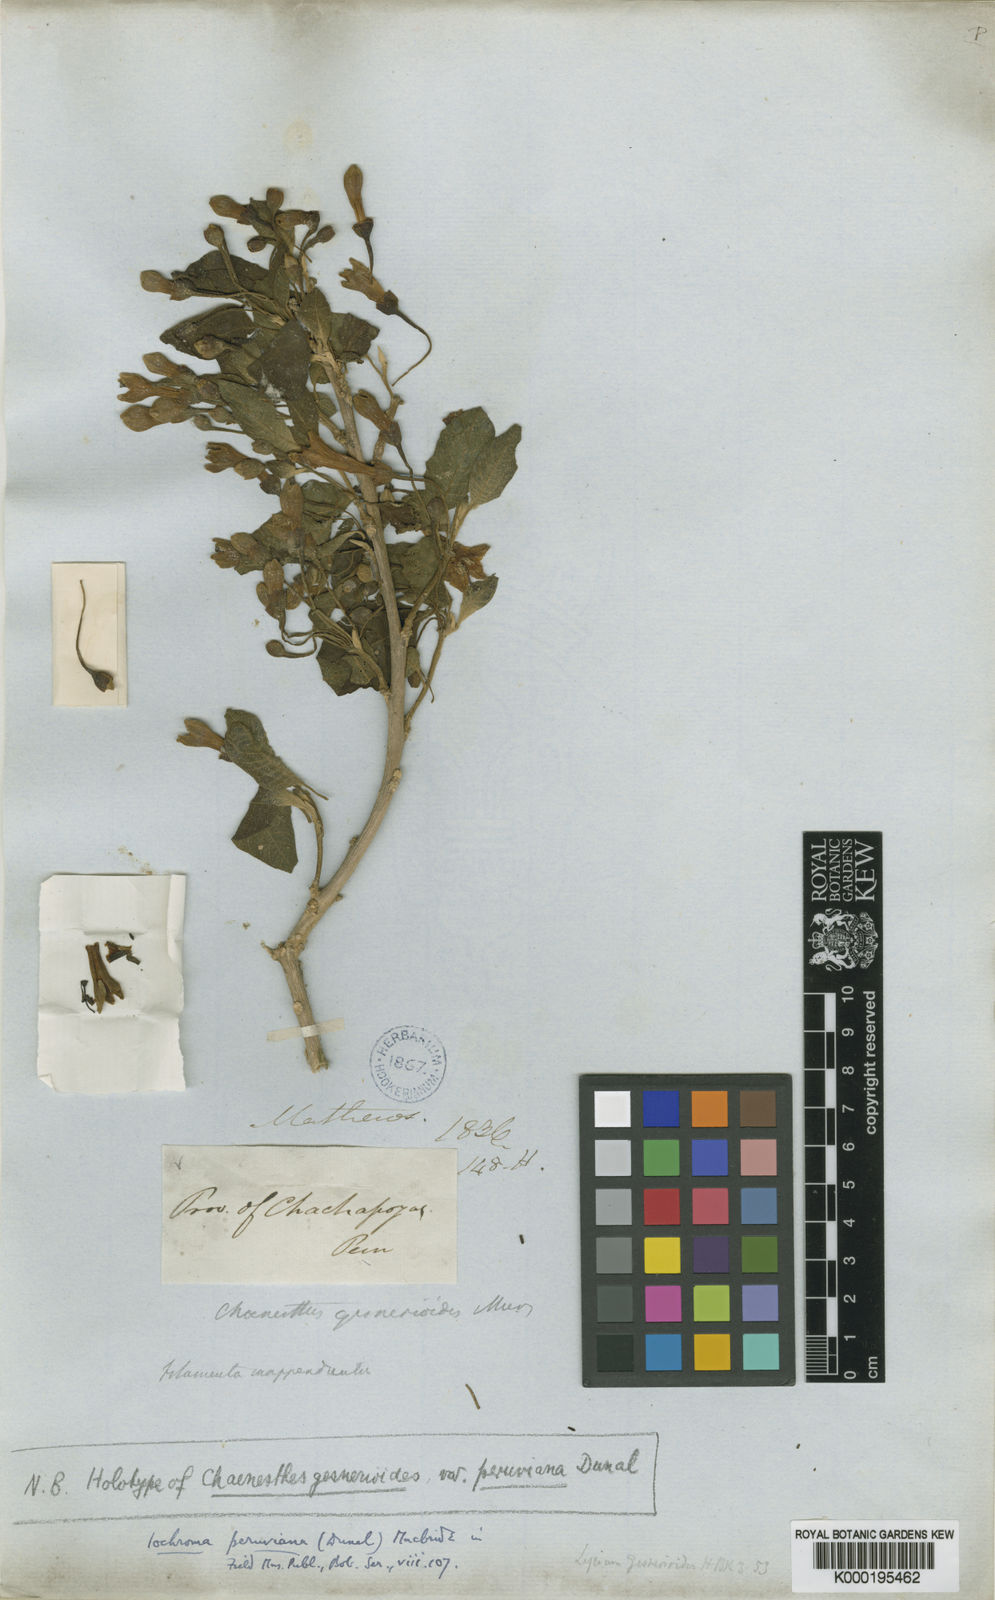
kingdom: Plantae
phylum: Tracheophyta
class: Magnoliopsida
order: Solanales
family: Solanaceae
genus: Iochroma
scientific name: Iochroma peruvianum
